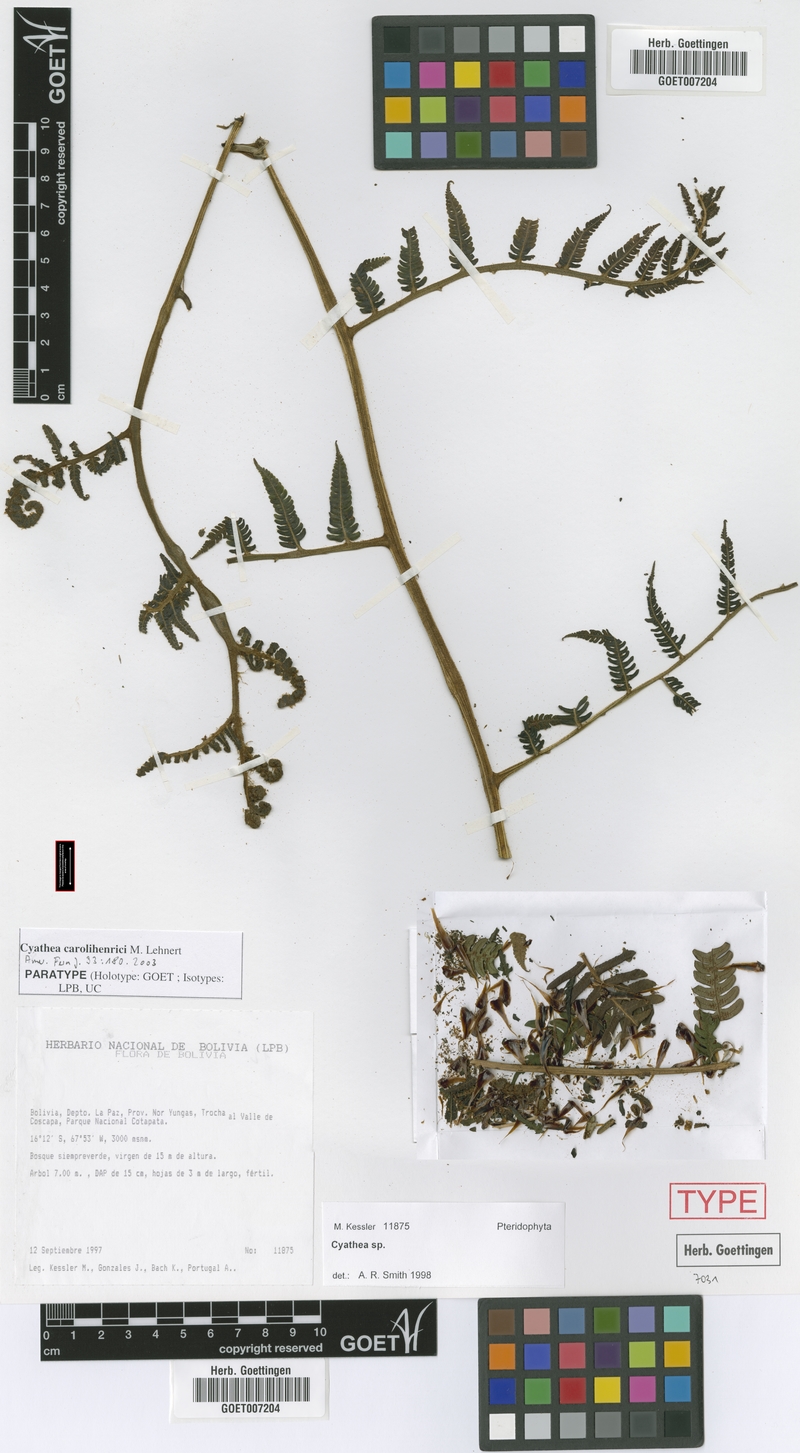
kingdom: Plantae
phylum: Tracheophyta
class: Polypodiopsida
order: Cyatheales
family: Cyatheaceae
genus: Cyathea
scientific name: Cyathea carolihenrici
